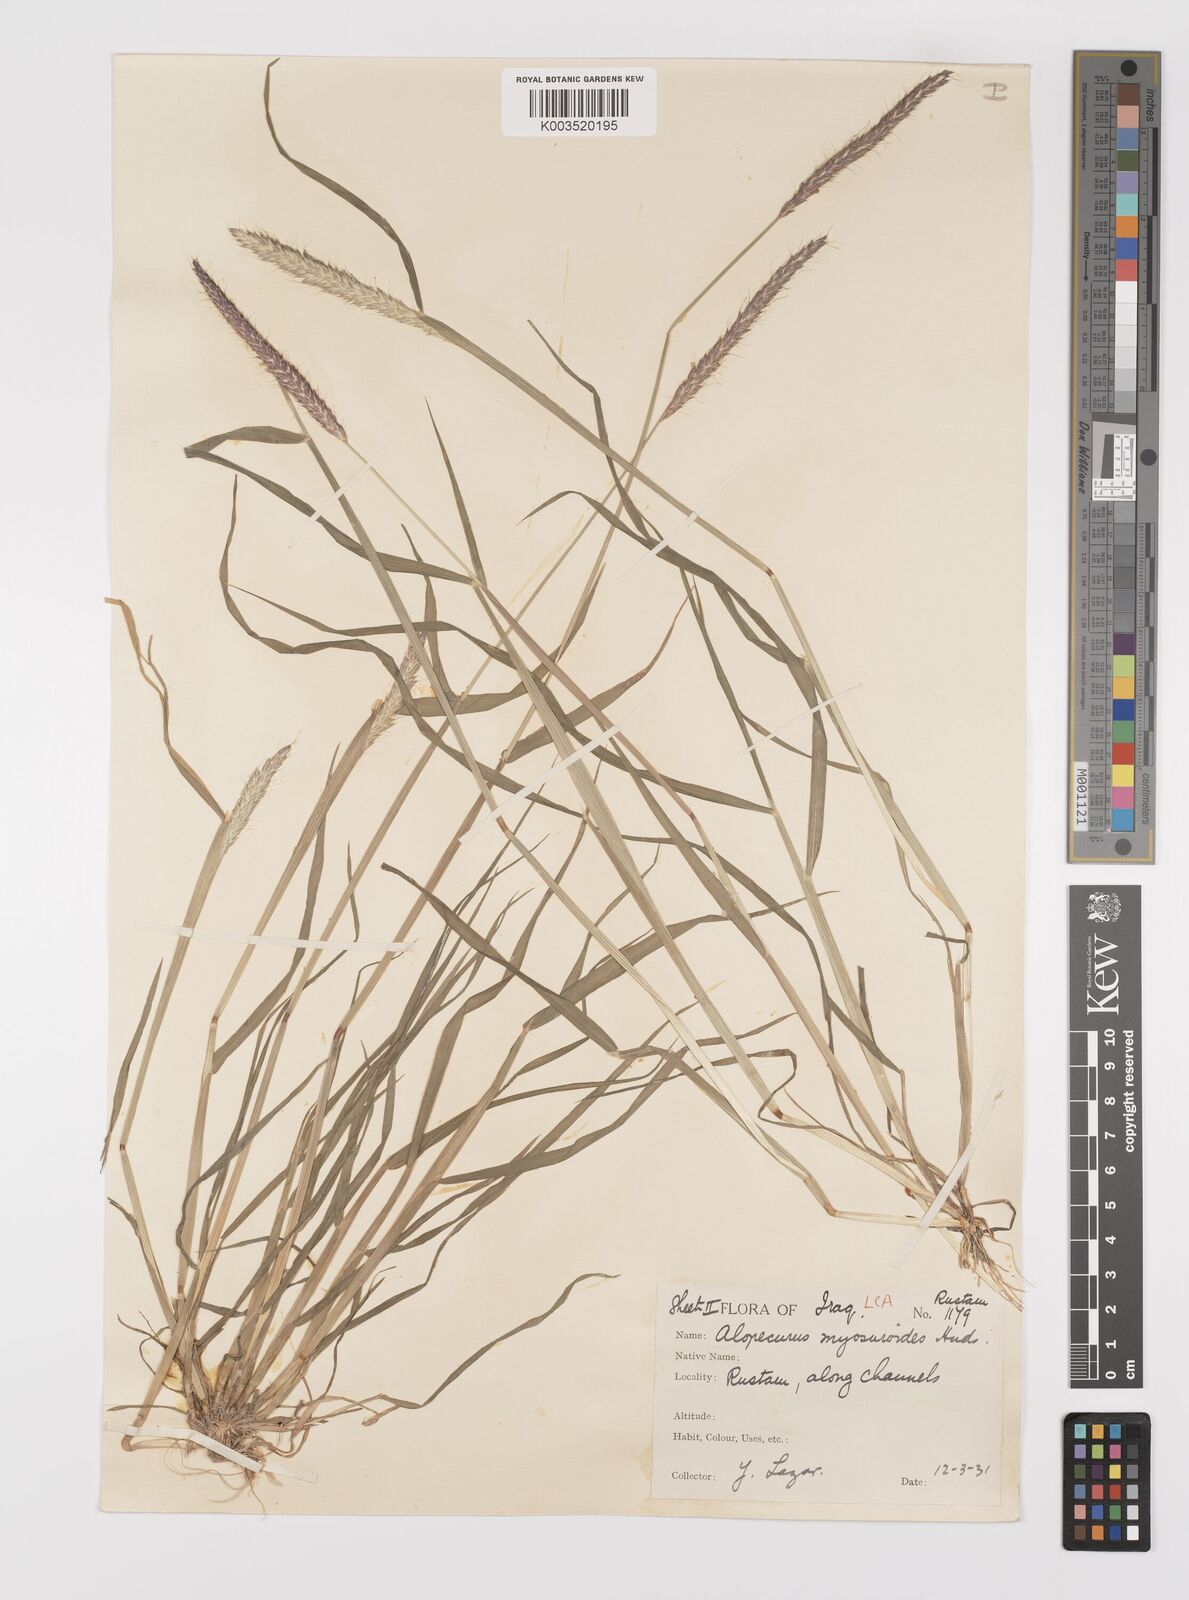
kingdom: Plantae
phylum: Tracheophyta
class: Liliopsida
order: Poales
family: Poaceae
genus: Alopecurus
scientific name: Alopecurus myosuroides
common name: Black-grass
